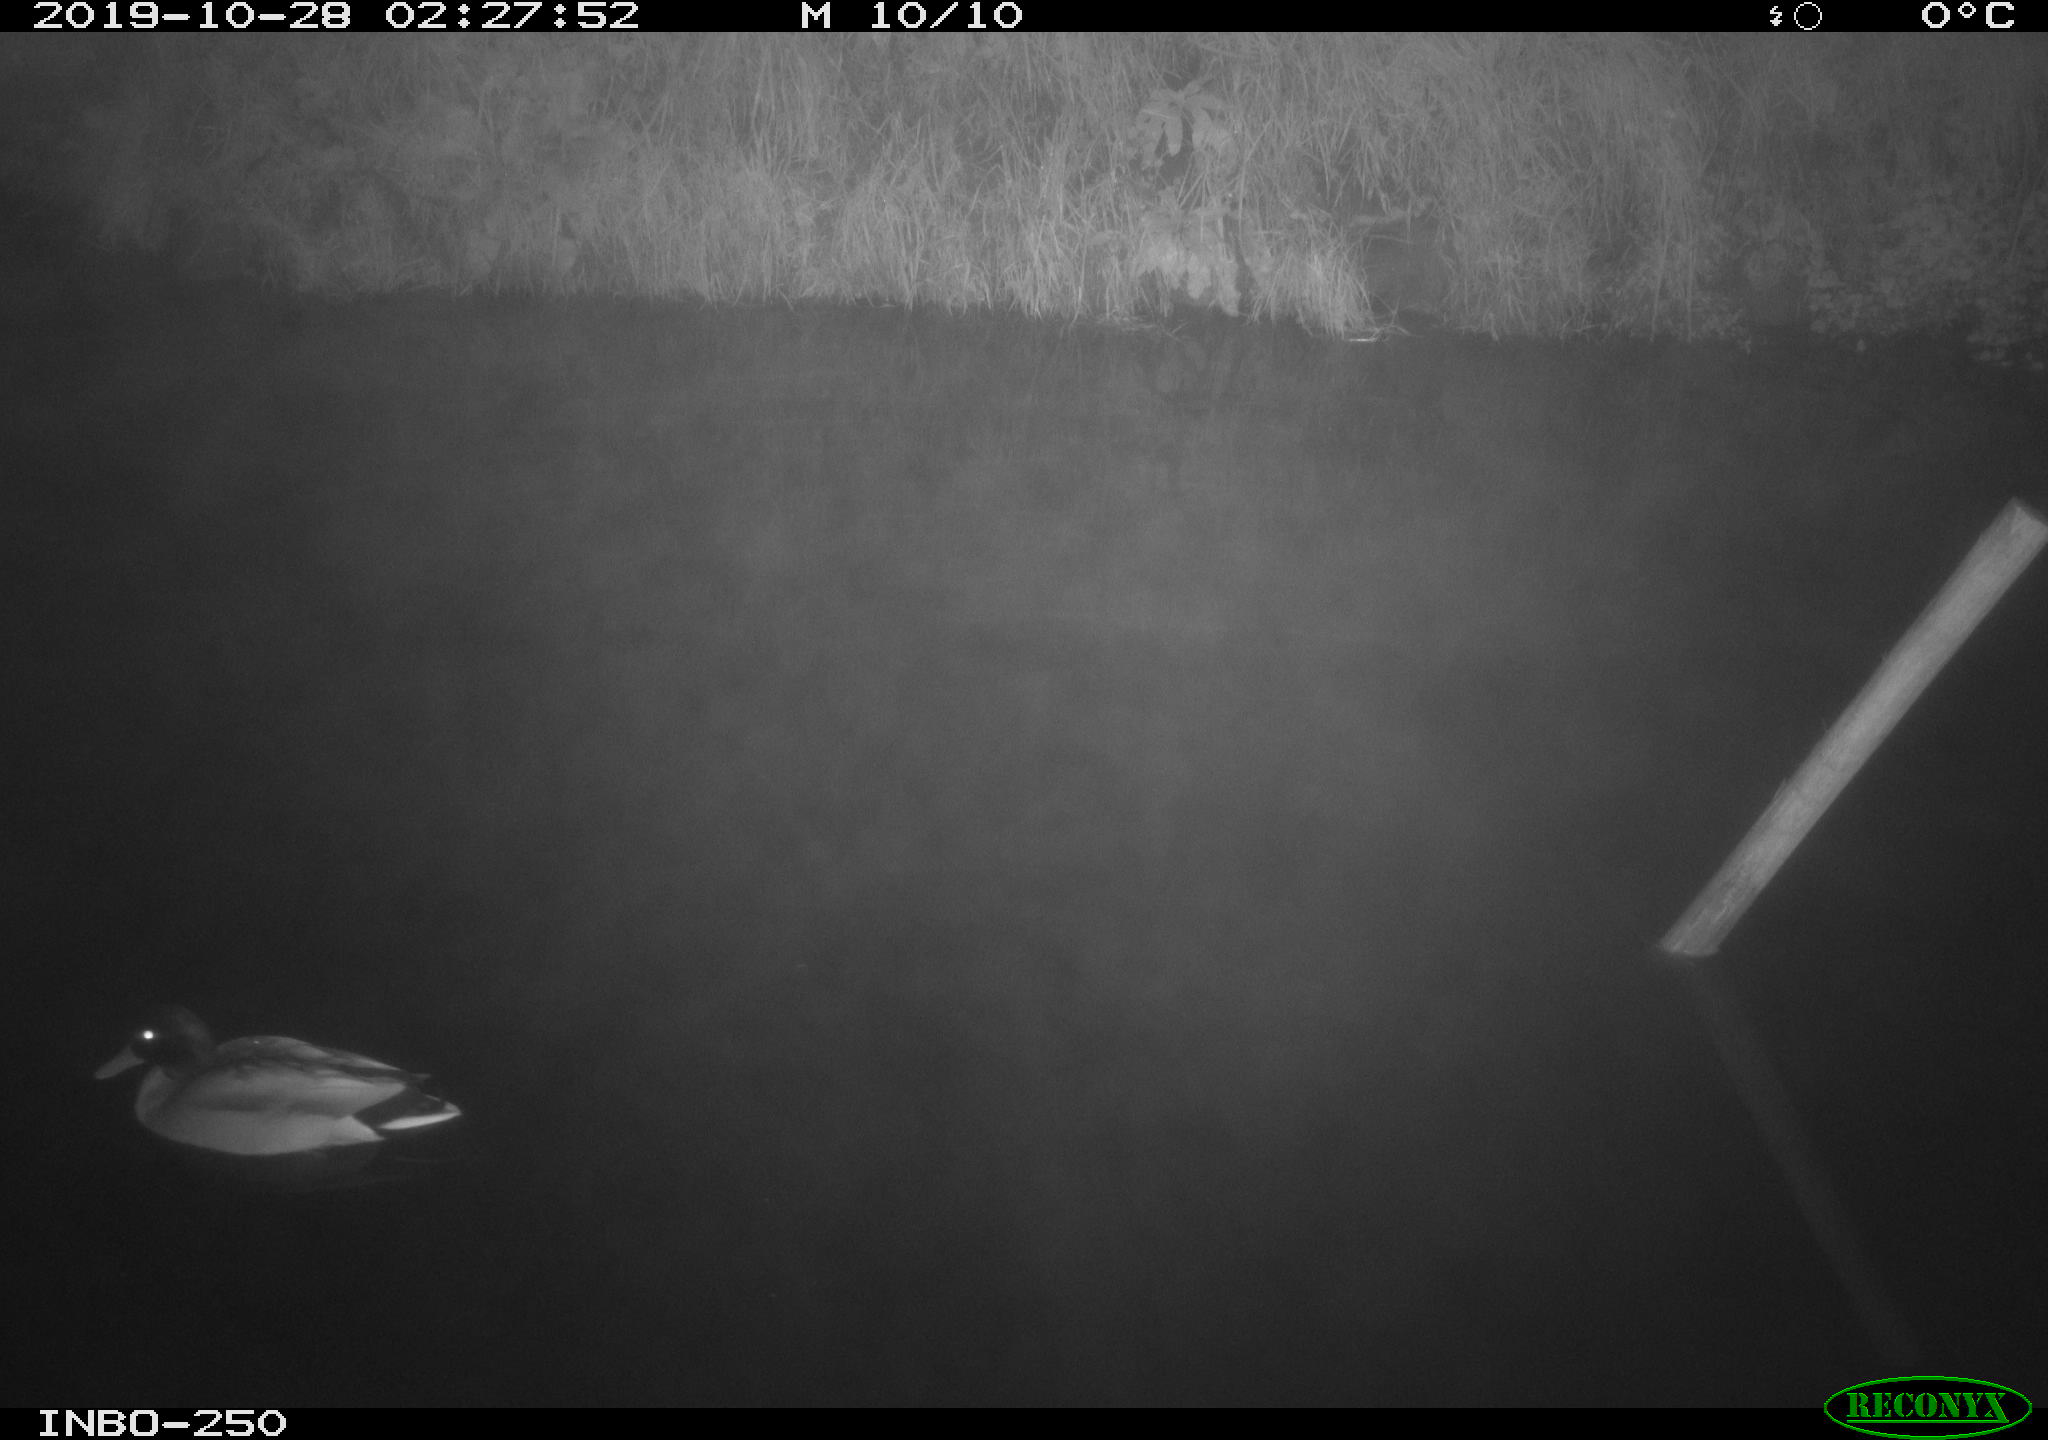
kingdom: Animalia
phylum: Chordata
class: Aves
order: Anseriformes
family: Anatidae
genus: Anas
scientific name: Anas platyrhynchos
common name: Mallard
